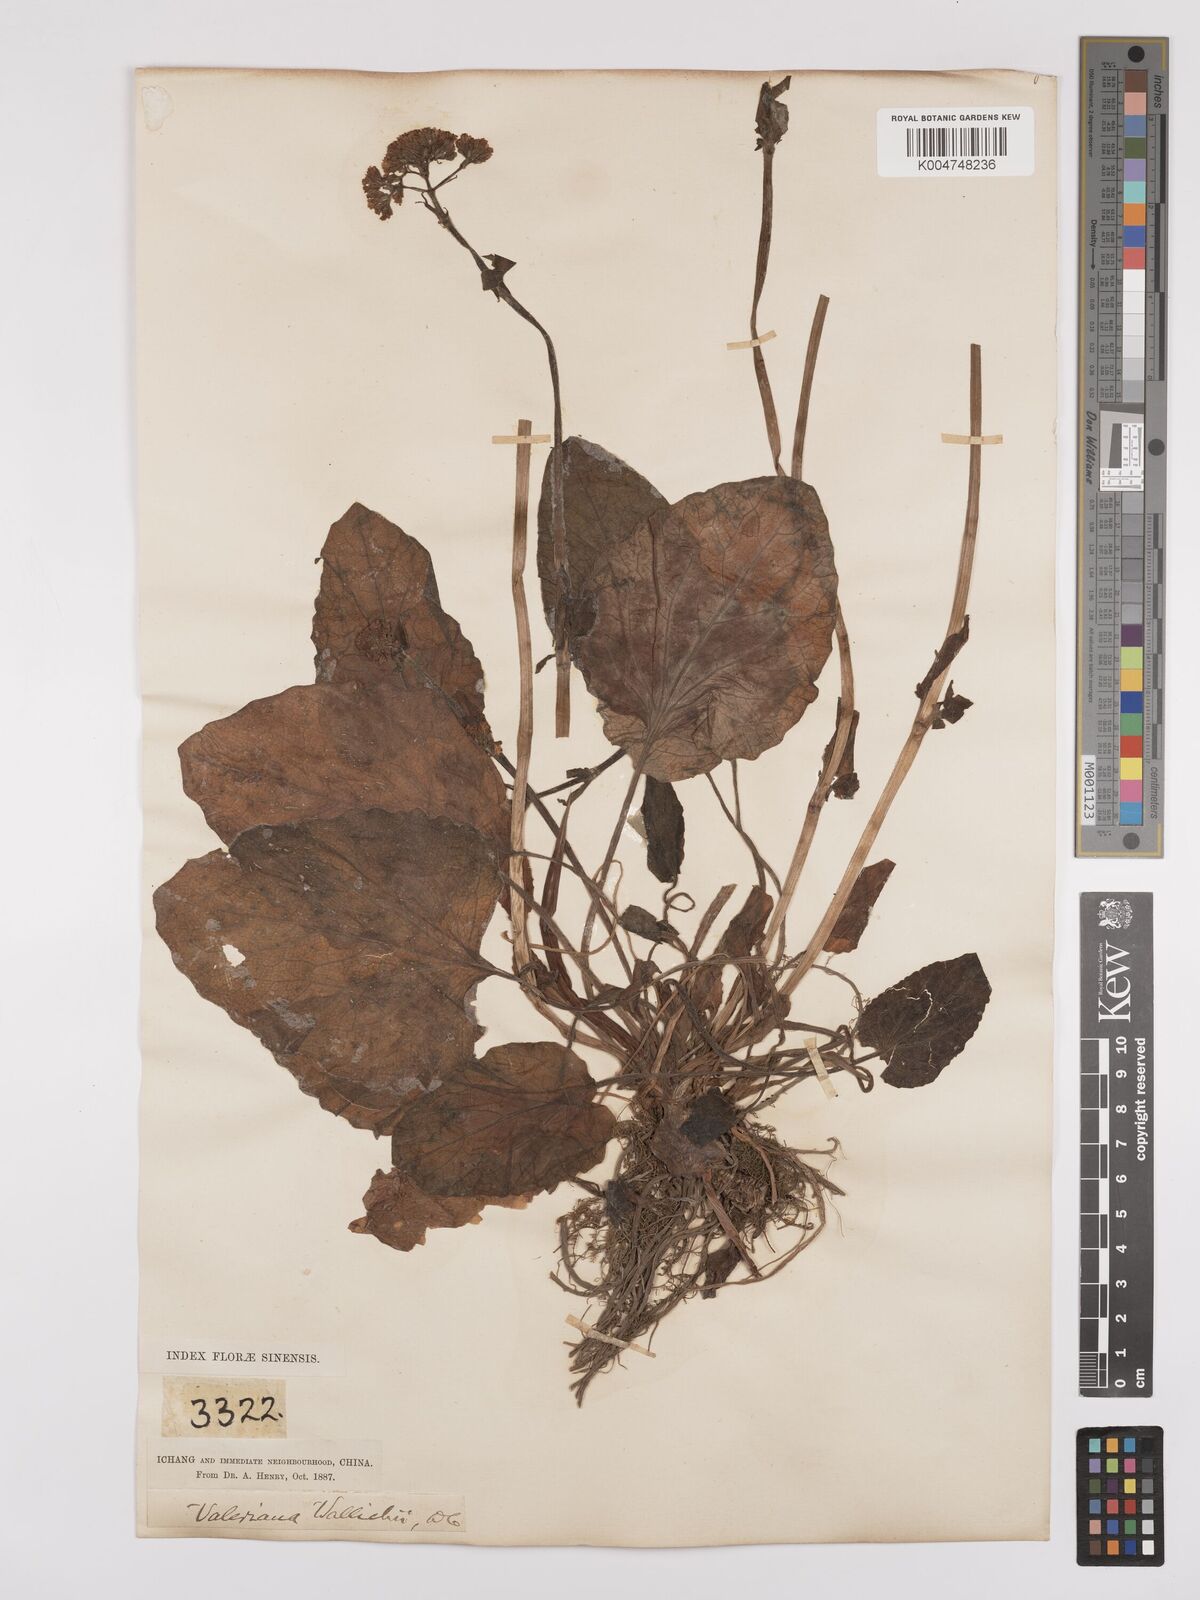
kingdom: Plantae
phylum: Tracheophyta
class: Magnoliopsida
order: Dipsacales
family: Caprifoliaceae
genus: Valeriana
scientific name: Valeriana
